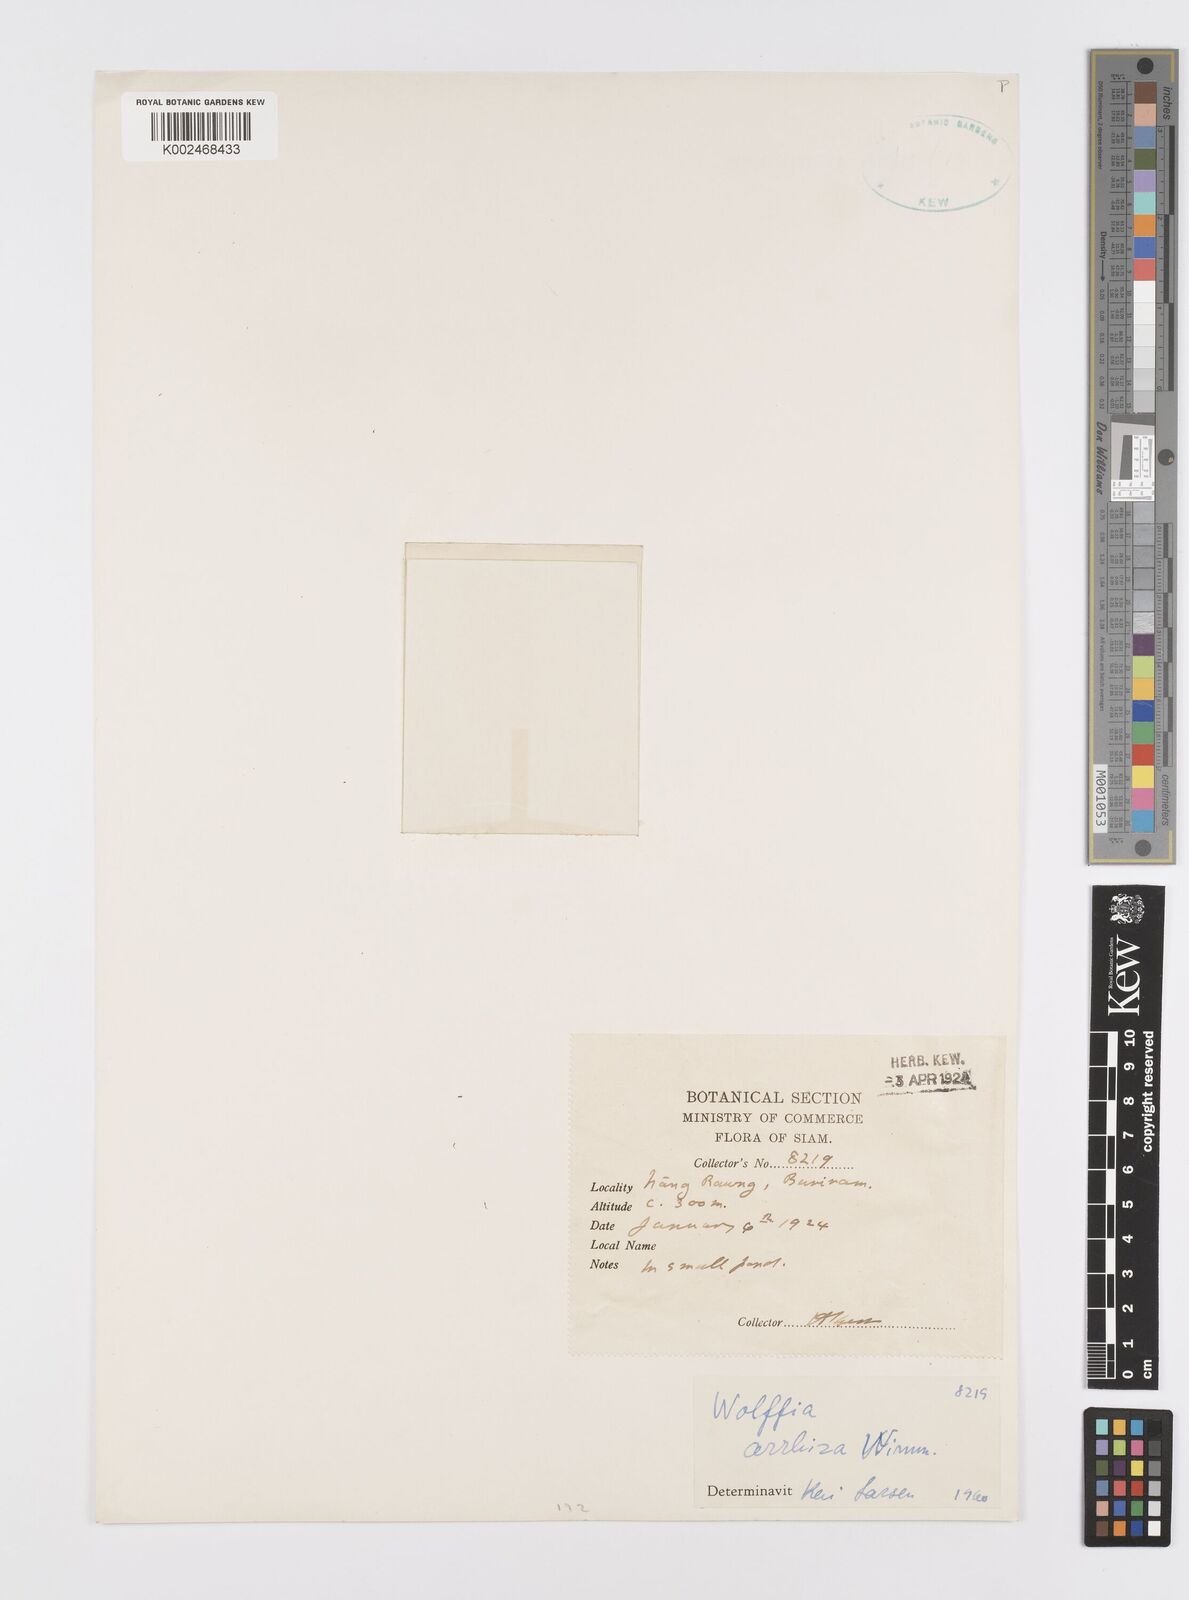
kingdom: Plantae
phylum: Tracheophyta
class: Liliopsida
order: Alismatales
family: Araceae
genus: Wolffia
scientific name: Wolffia arrhiza
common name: Rootless duckweed
